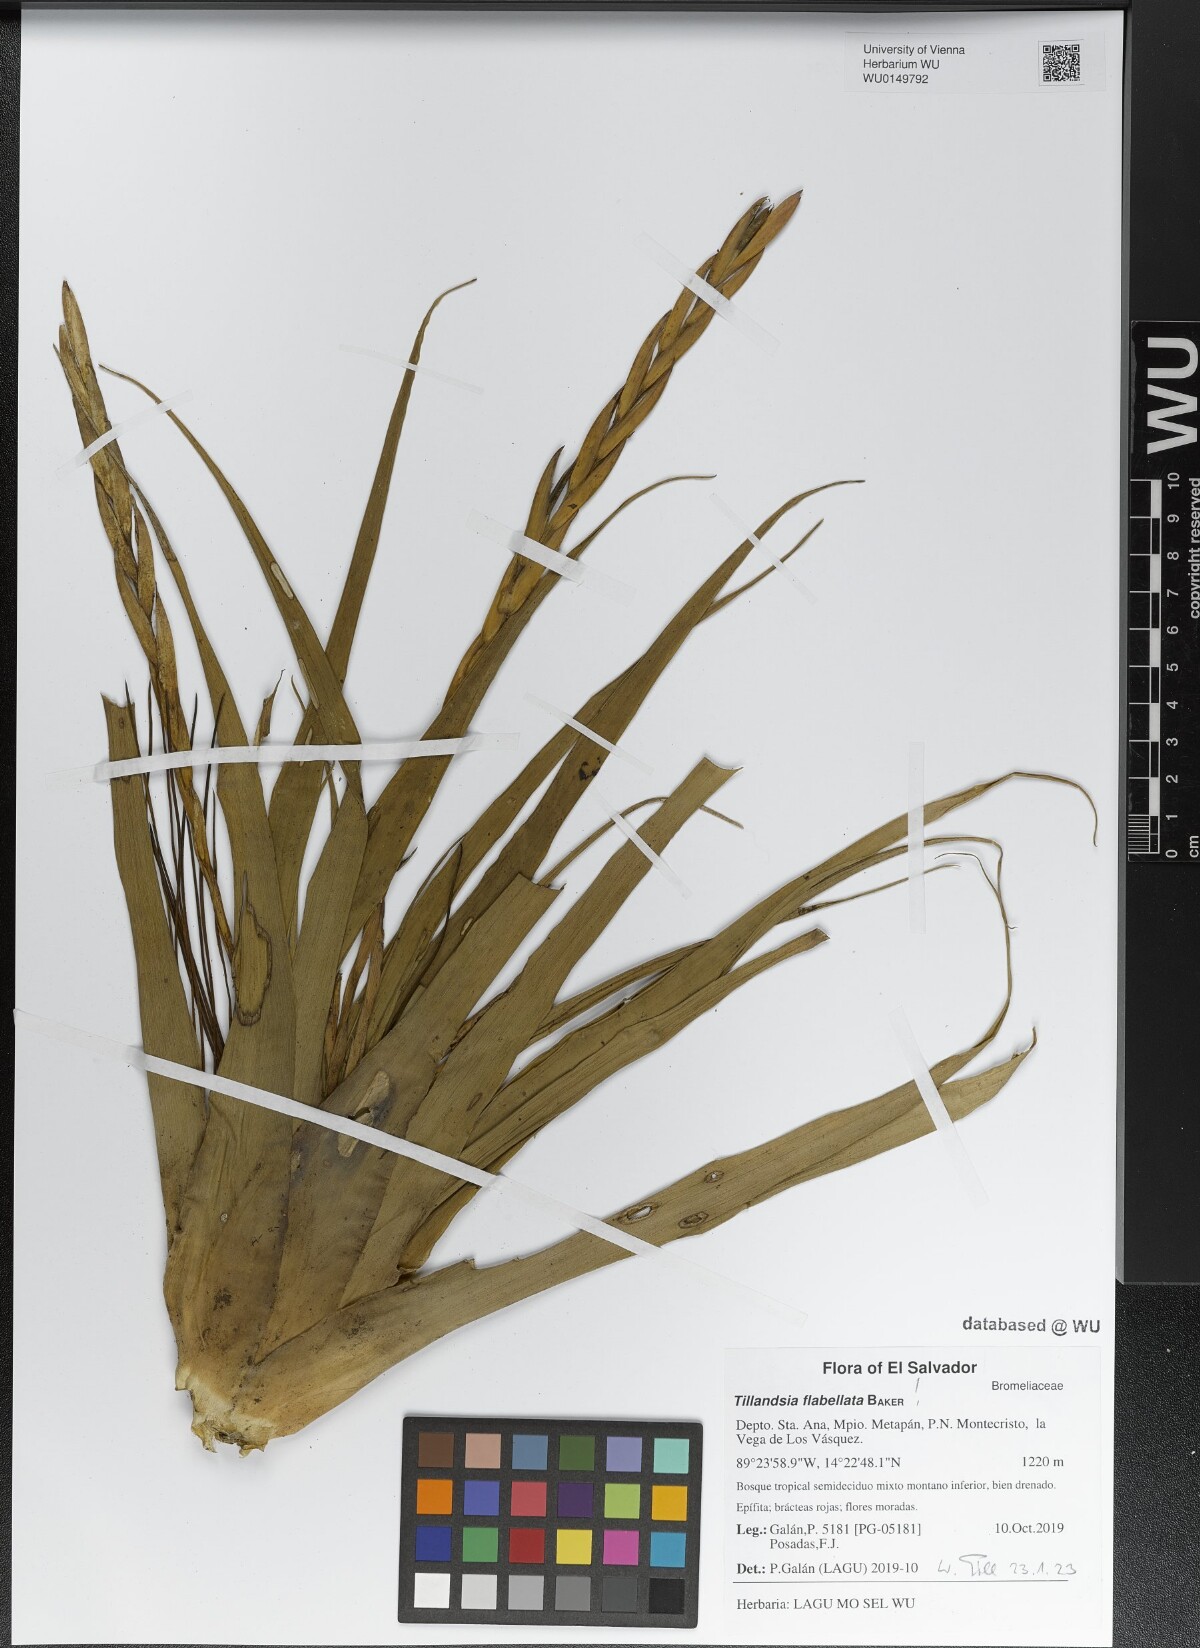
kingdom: Plantae
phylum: Tracheophyta
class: Liliopsida
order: Poales
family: Bromeliaceae
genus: Tillandsia
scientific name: Tillandsia flabellata
